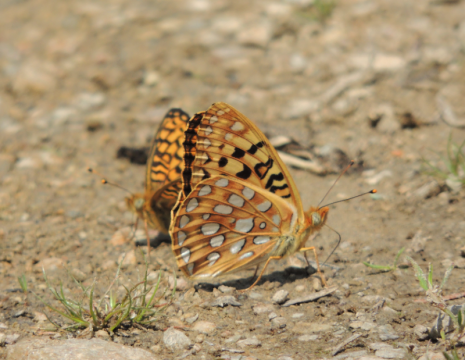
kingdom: Animalia
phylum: Arthropoda
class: Insecta
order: Lepidoptera
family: Nymphalidae
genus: Speyeria
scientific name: Speyeria zerene
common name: Zerene Fritillary
